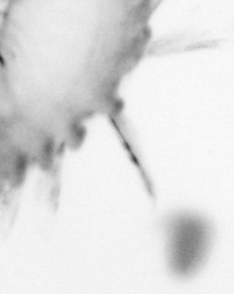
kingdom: Animalia
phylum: Annelida
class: Polychaeta
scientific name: Polychaeta
